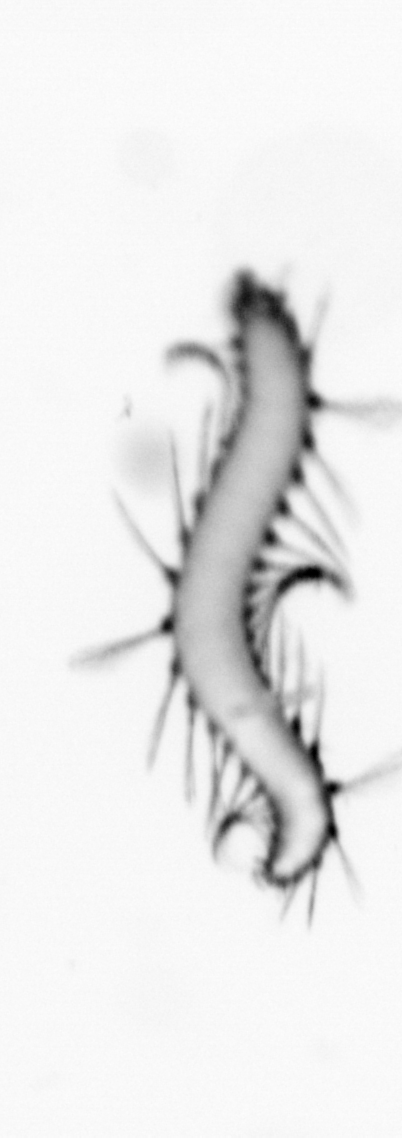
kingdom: Animalia
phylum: Annelida
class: Polychaeta
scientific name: Polychaeta
